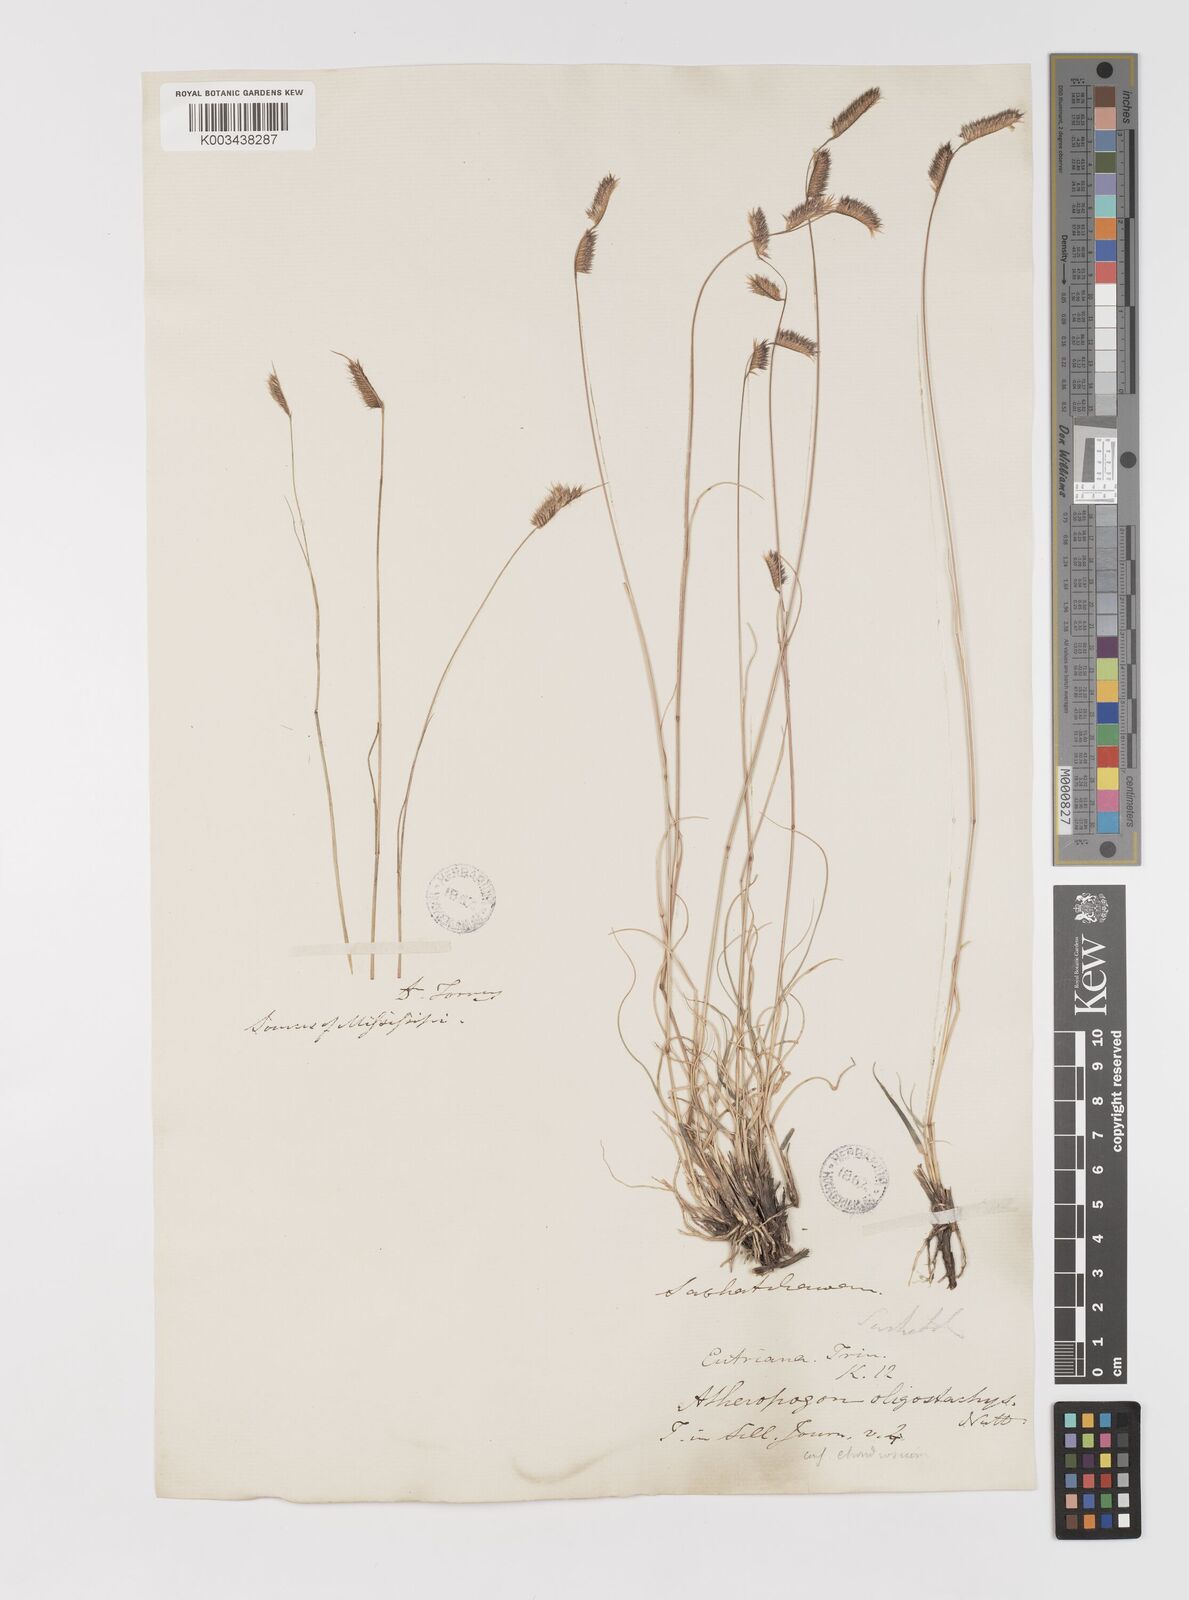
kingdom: Plantae
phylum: Tracheophyta
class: Liliopsida
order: Poales
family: Poaceae
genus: Bouteloua
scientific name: Bouteloua gracilis
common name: Blue grama
